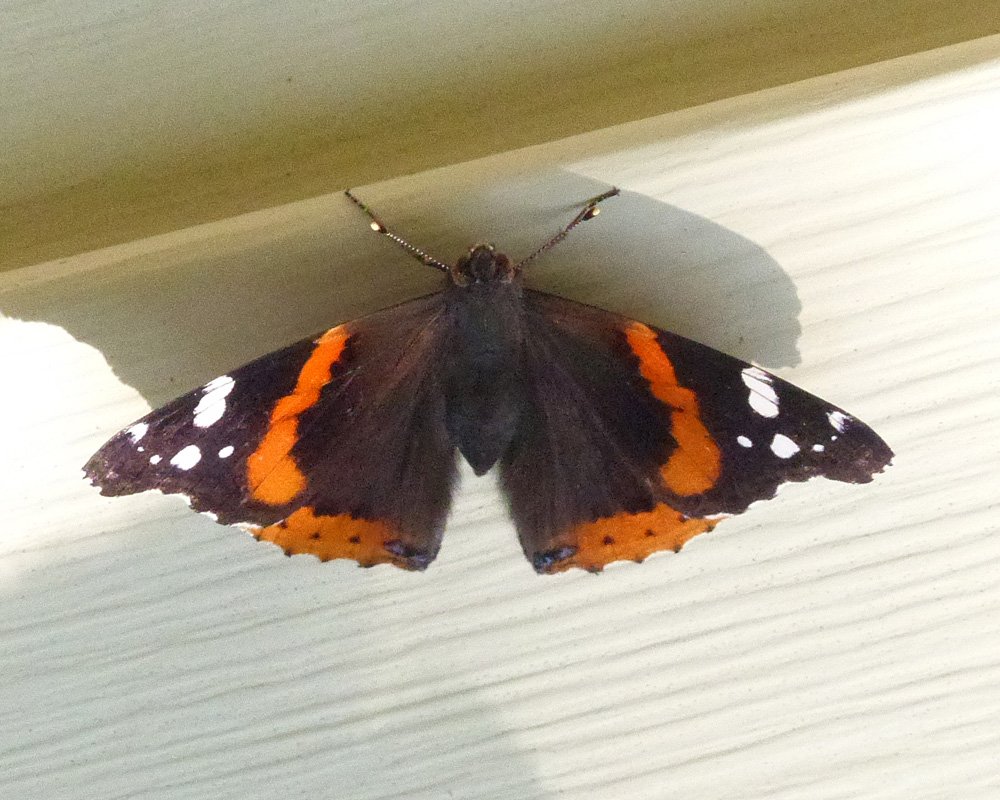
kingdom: Animalia
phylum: Arthropoda
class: Insecta
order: Lepidoptera
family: Nymphalidae
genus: Vanessa
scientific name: Vanessa atalanta
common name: Red Admiral
